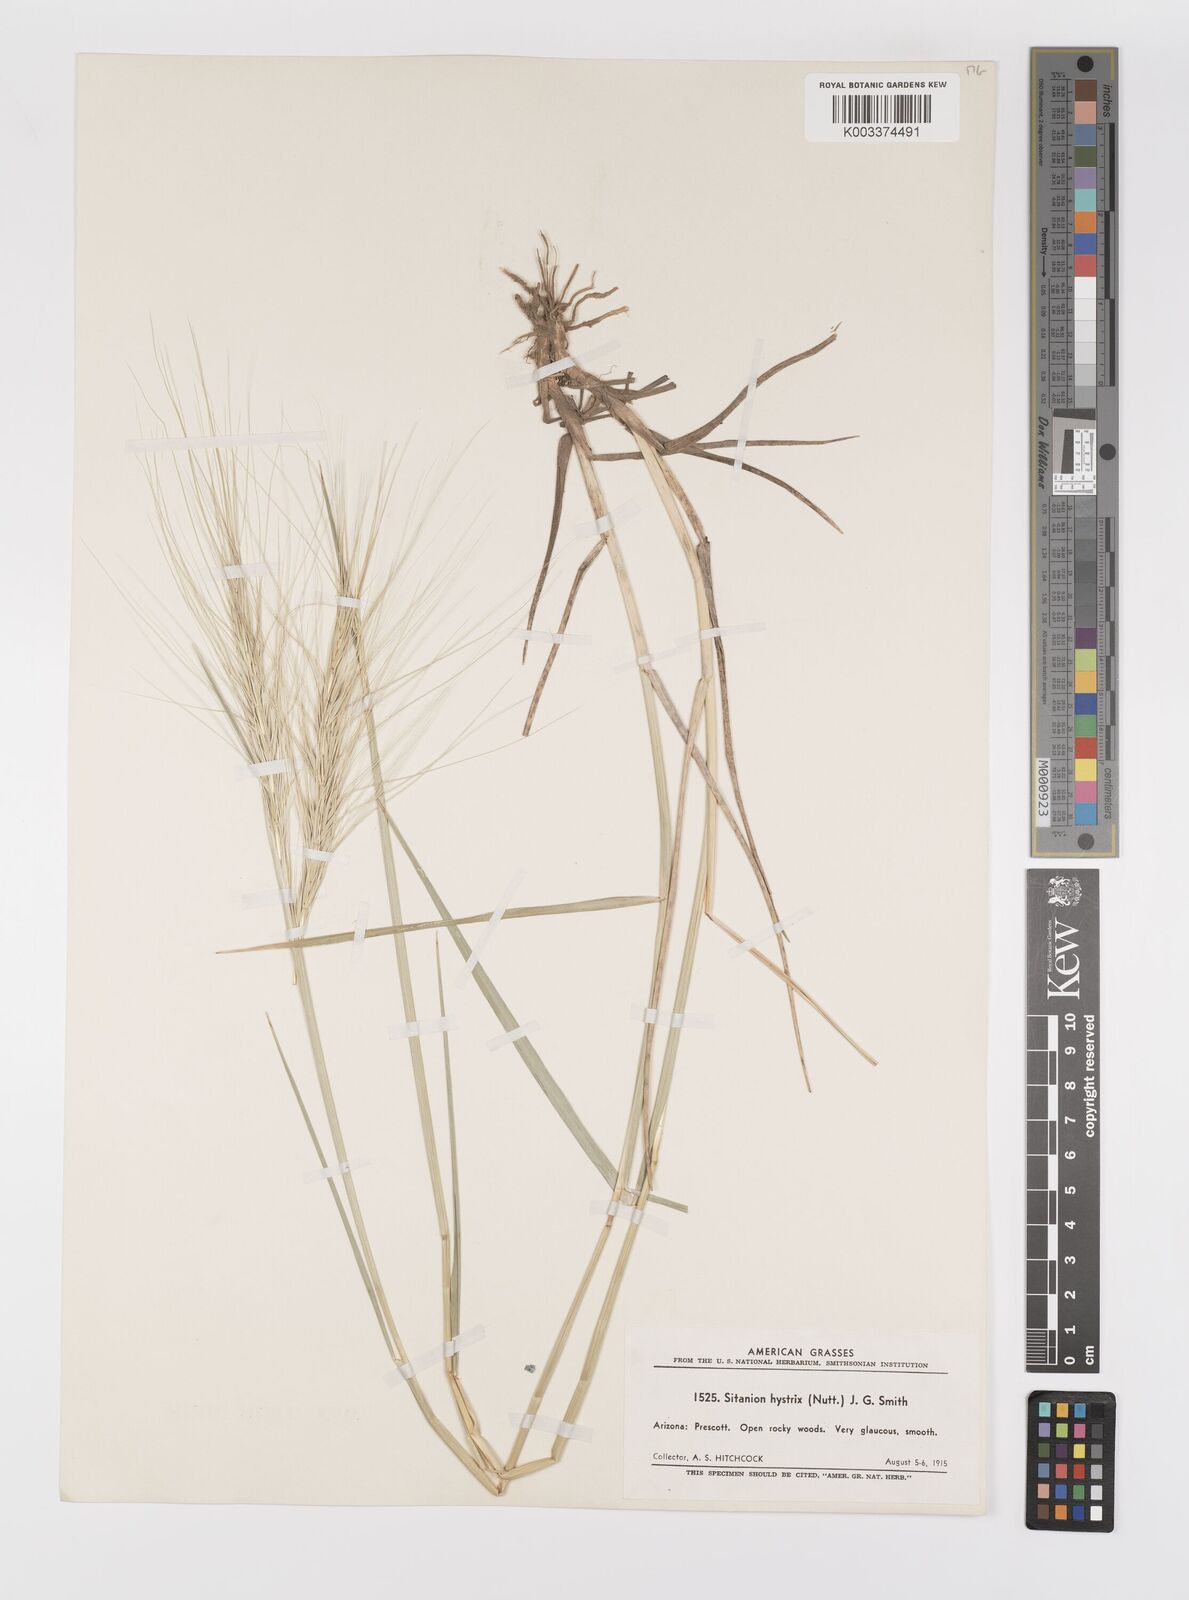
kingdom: Plantae
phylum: Tracheophyta
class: Liliopsida
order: Poales
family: Poaceae
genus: Elymus
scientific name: Elymus elymoides
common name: Bottlebrush squirreltail
